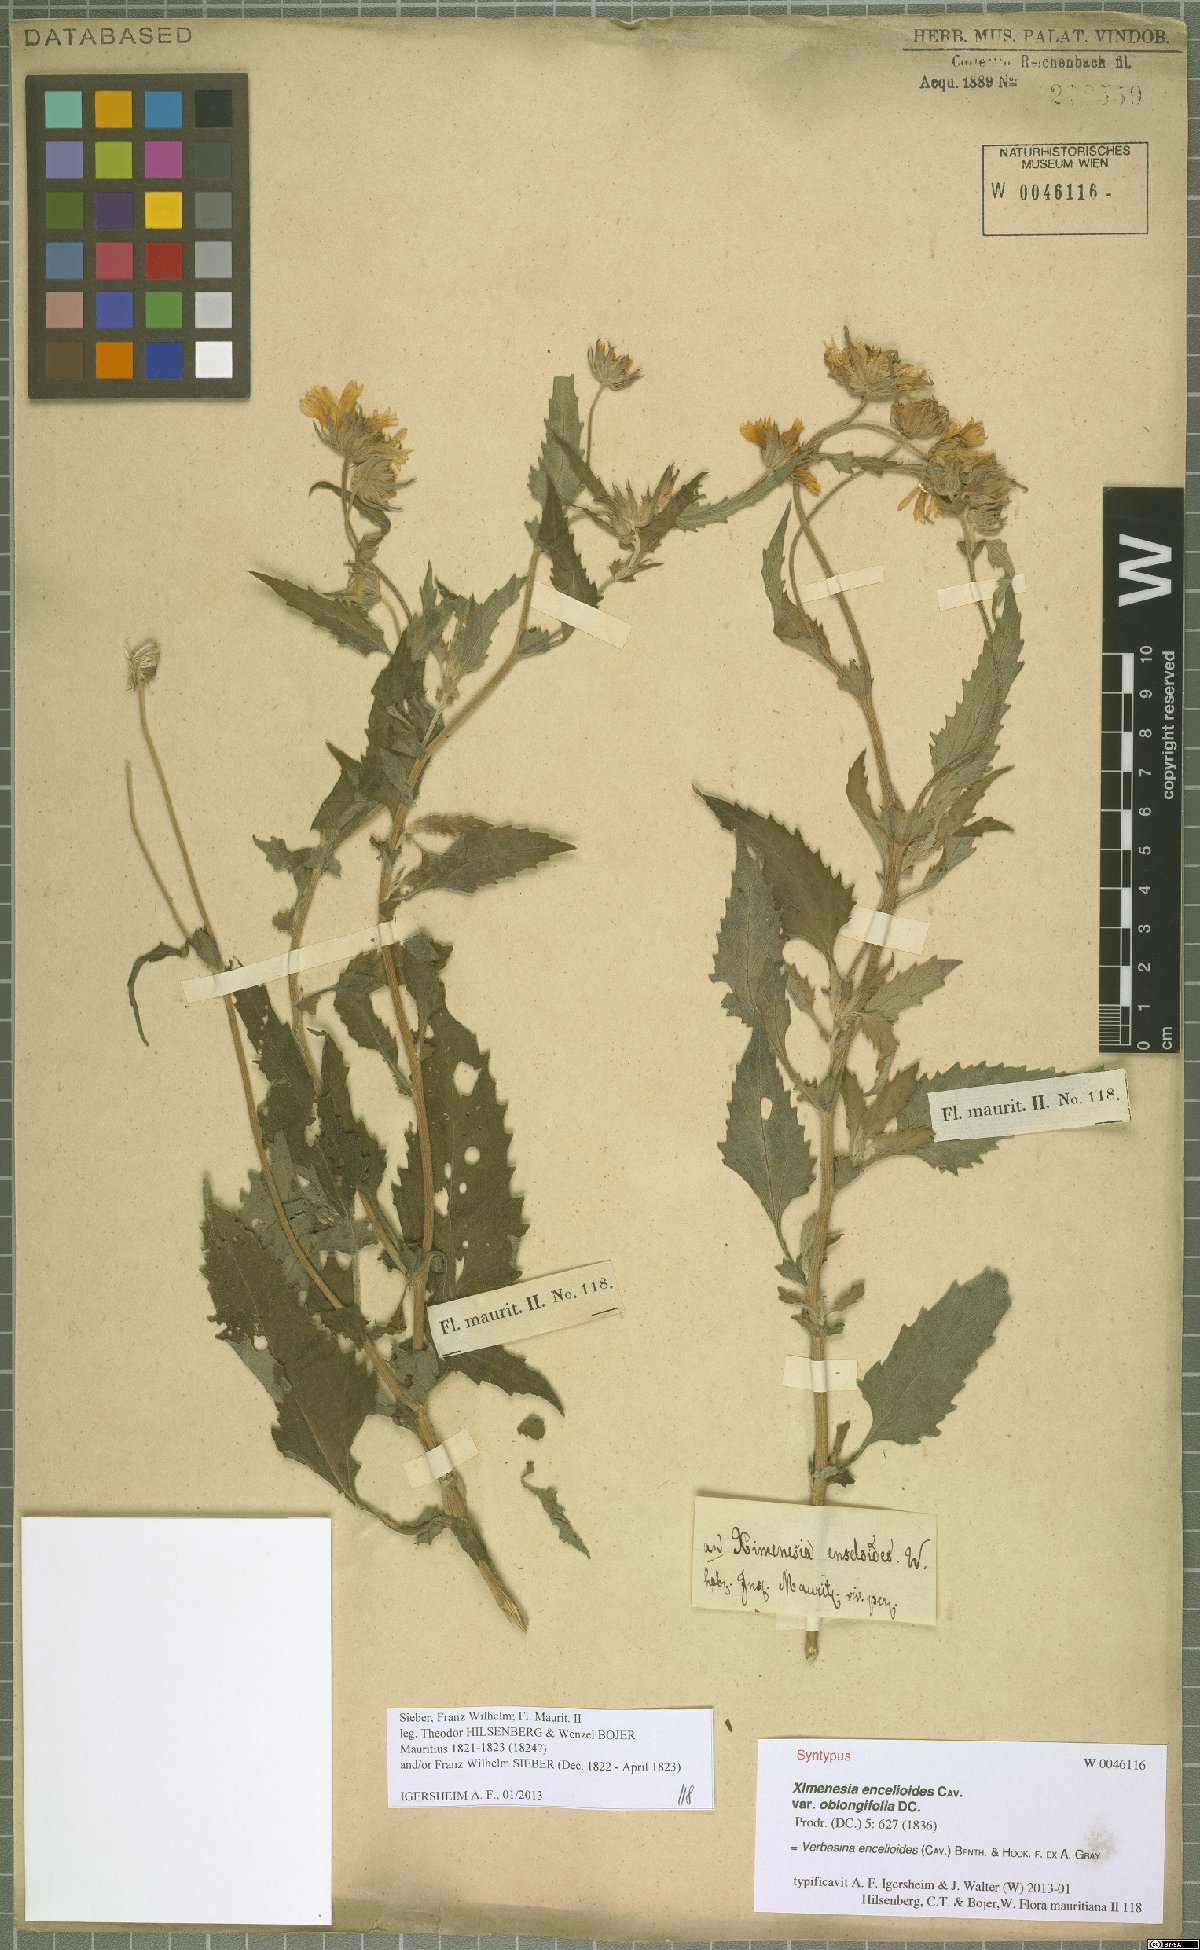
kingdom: Plantae
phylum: Tracheophyta
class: Magnoliopsida
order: Asterales
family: Asteraceae
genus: Verbesina
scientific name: Verbesina encelioides
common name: Golden crownbeard
